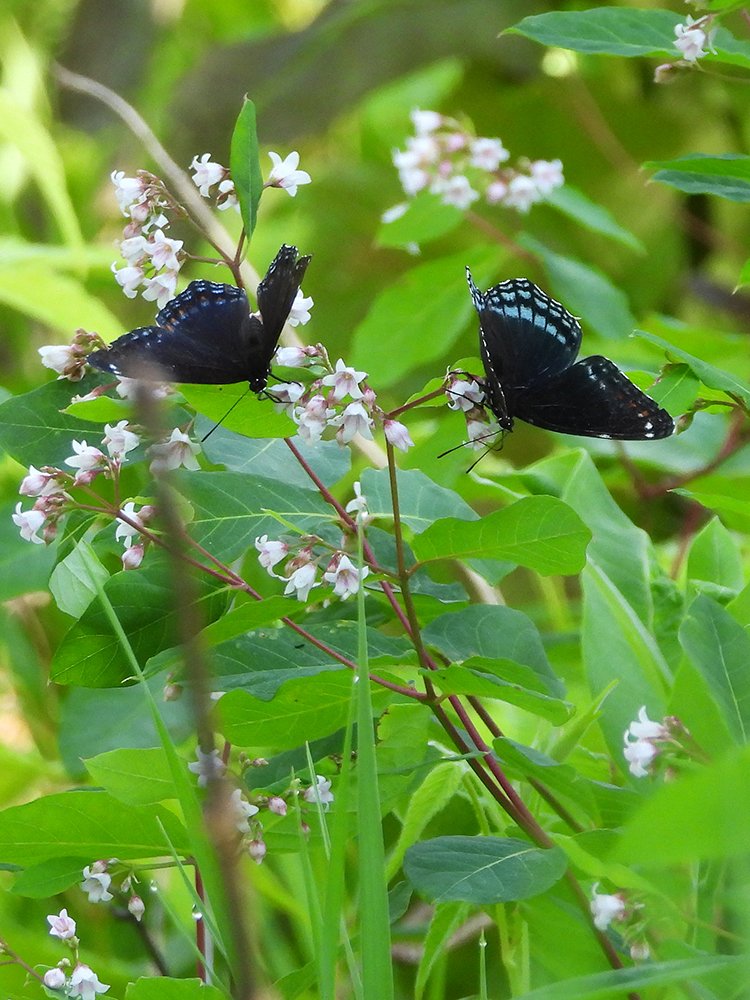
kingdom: Animalia
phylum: Arthropoda
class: Insecta
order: Lepidoptera
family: Nymphalidae
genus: Limenitis
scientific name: Limenitis astyanax
